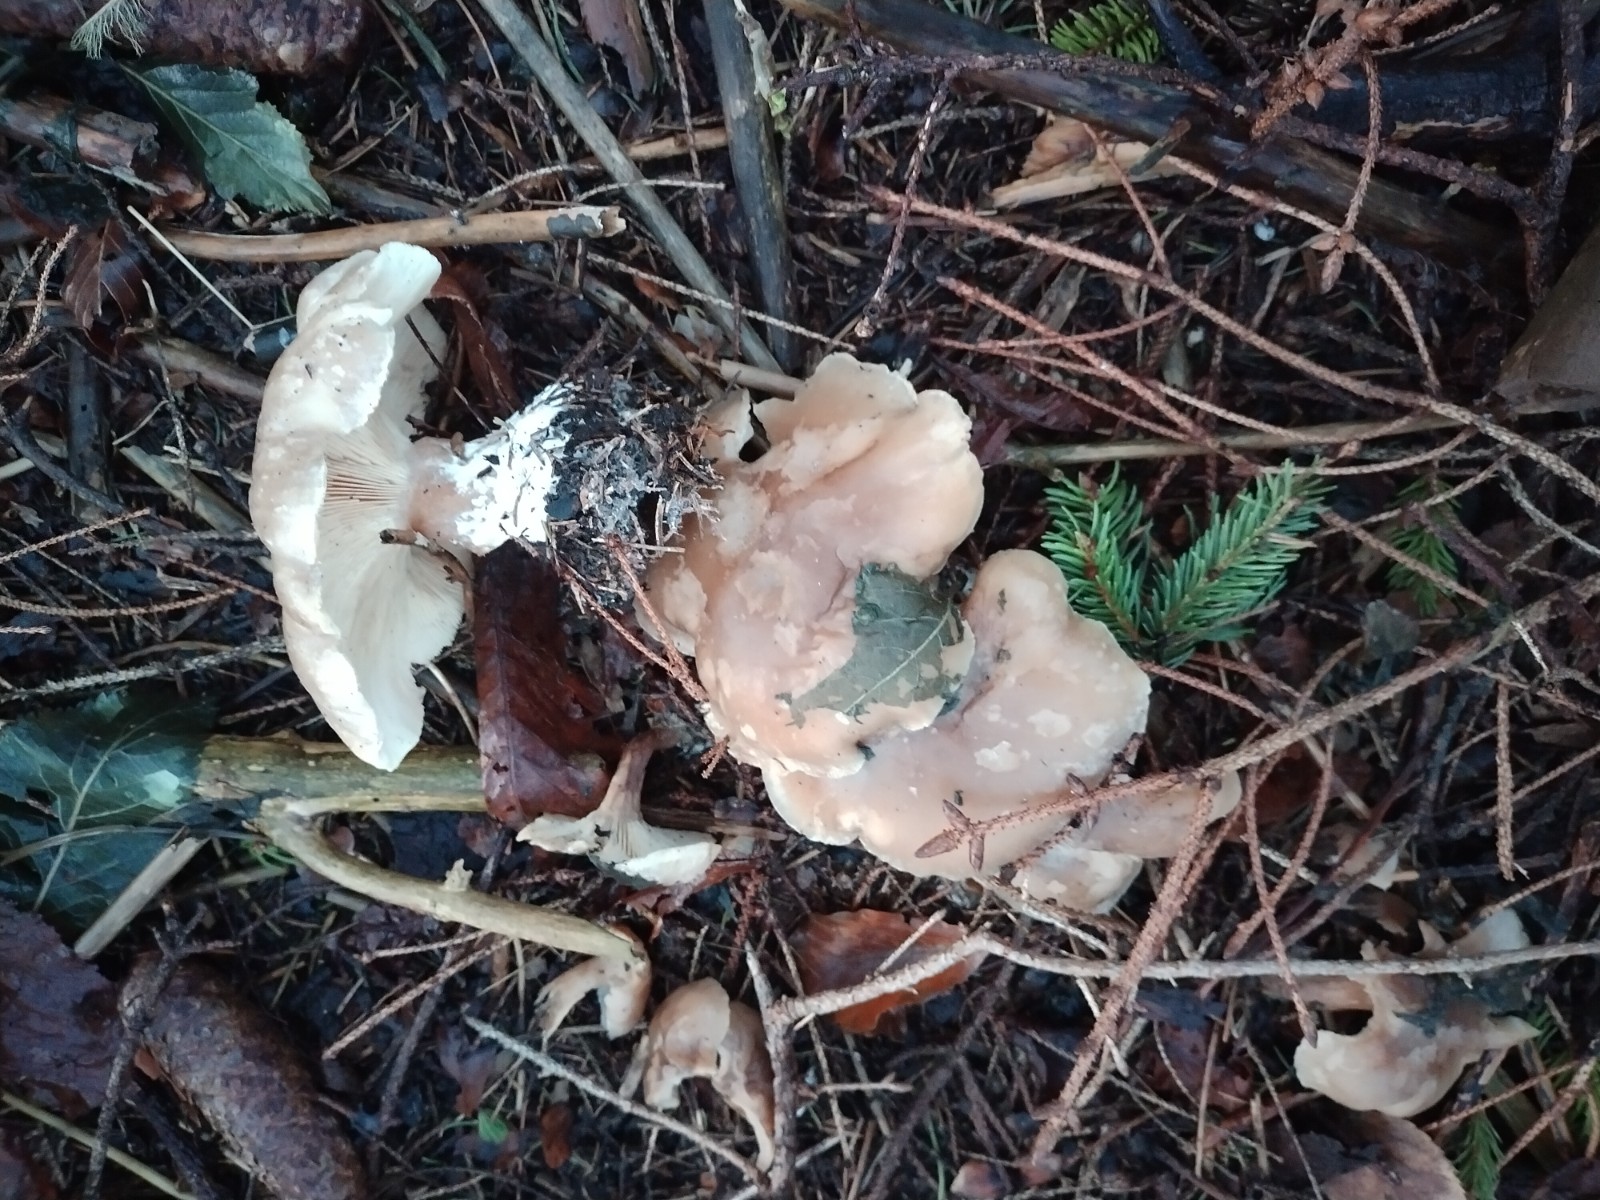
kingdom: Fungi
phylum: Basidiomycota
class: Agaricomycetes
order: Agaricales
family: Tricholomataceae
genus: Clitocybe
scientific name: Clitocybe nebularis
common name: tåge-tragthat
